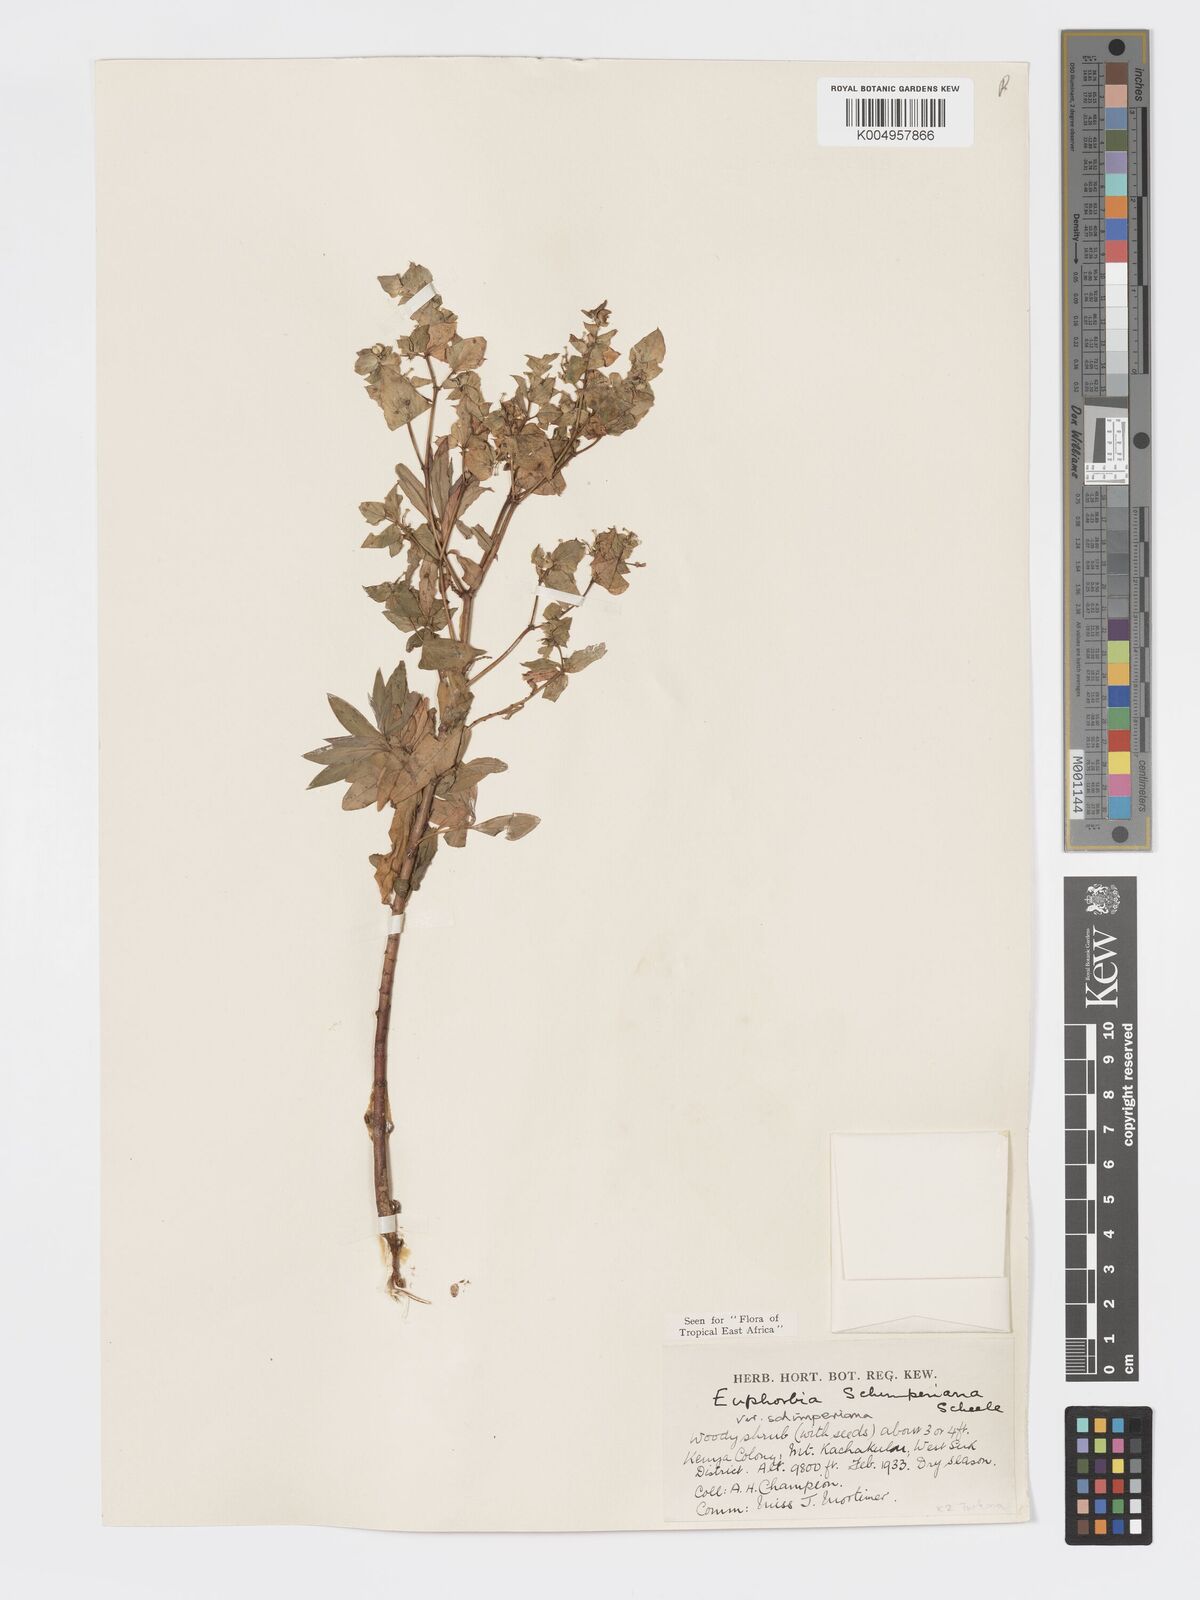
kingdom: Plantae
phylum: Tracheophyta
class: Magnoliopsida
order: Malpighiales
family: Euphorbiaceae
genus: Euphorbia
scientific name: Euphorbia schimperiana
